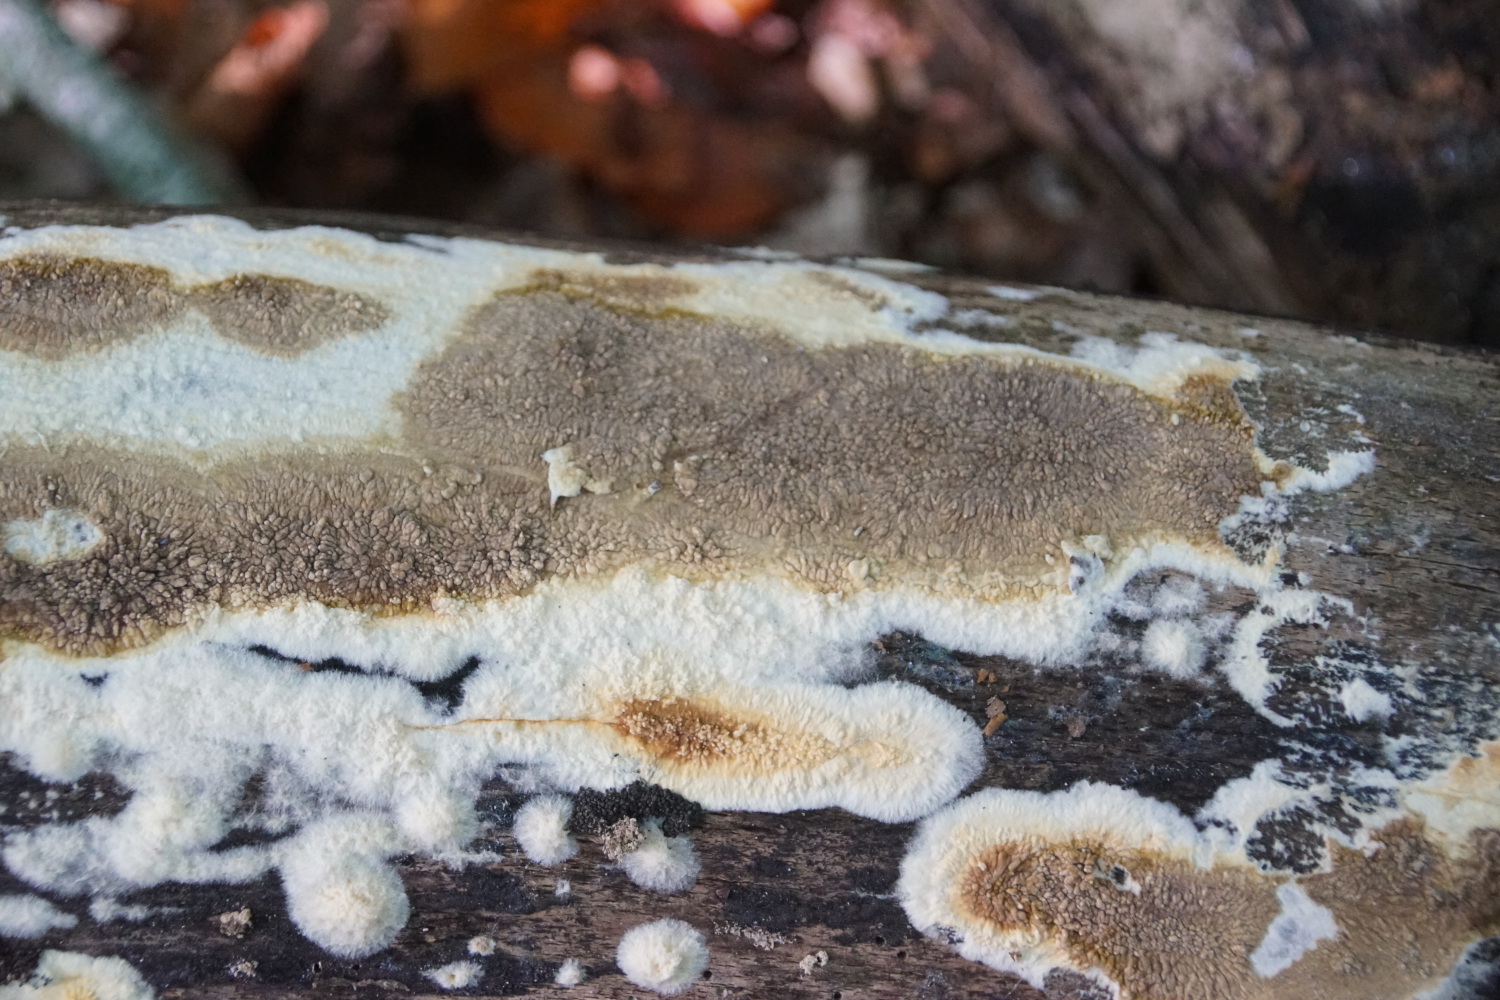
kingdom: Fungi
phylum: Basidiomycota
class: Agaricomycetes
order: Boletales
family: Coniophoraceae
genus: Coniophora
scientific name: Coniophora puteana
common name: gul tømmersvamp
